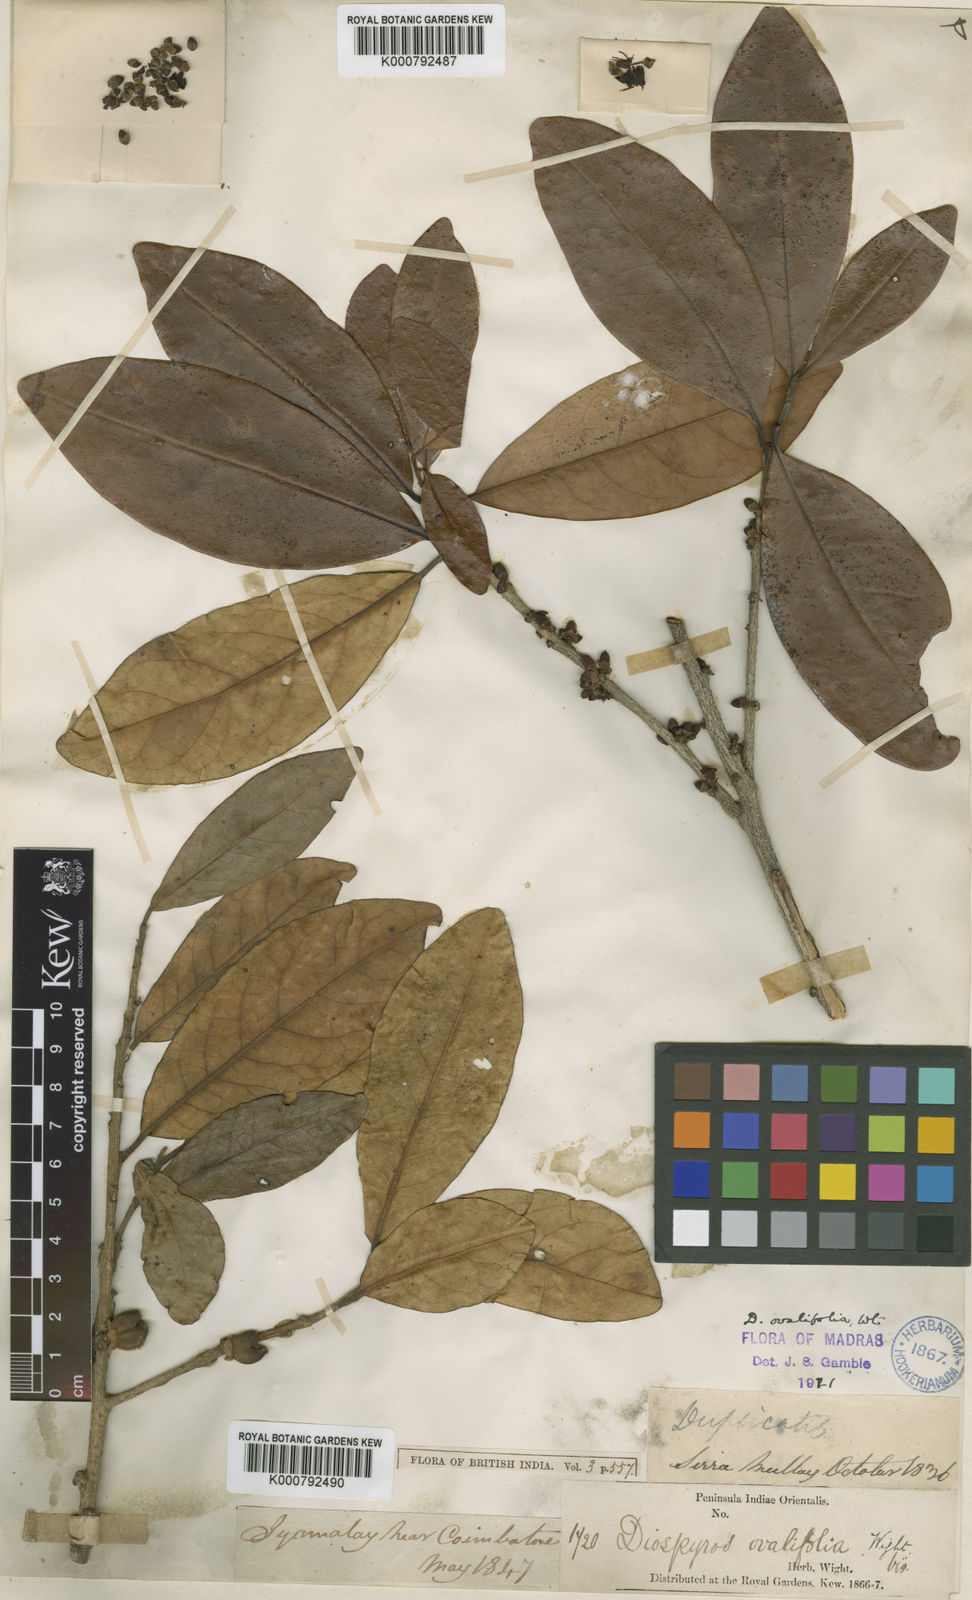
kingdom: Plantae
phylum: Tracheophyta
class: Magnoliopsida
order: Ericales
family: Ebenaceae
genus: Diospyros
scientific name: Diospyros ovalifolia
